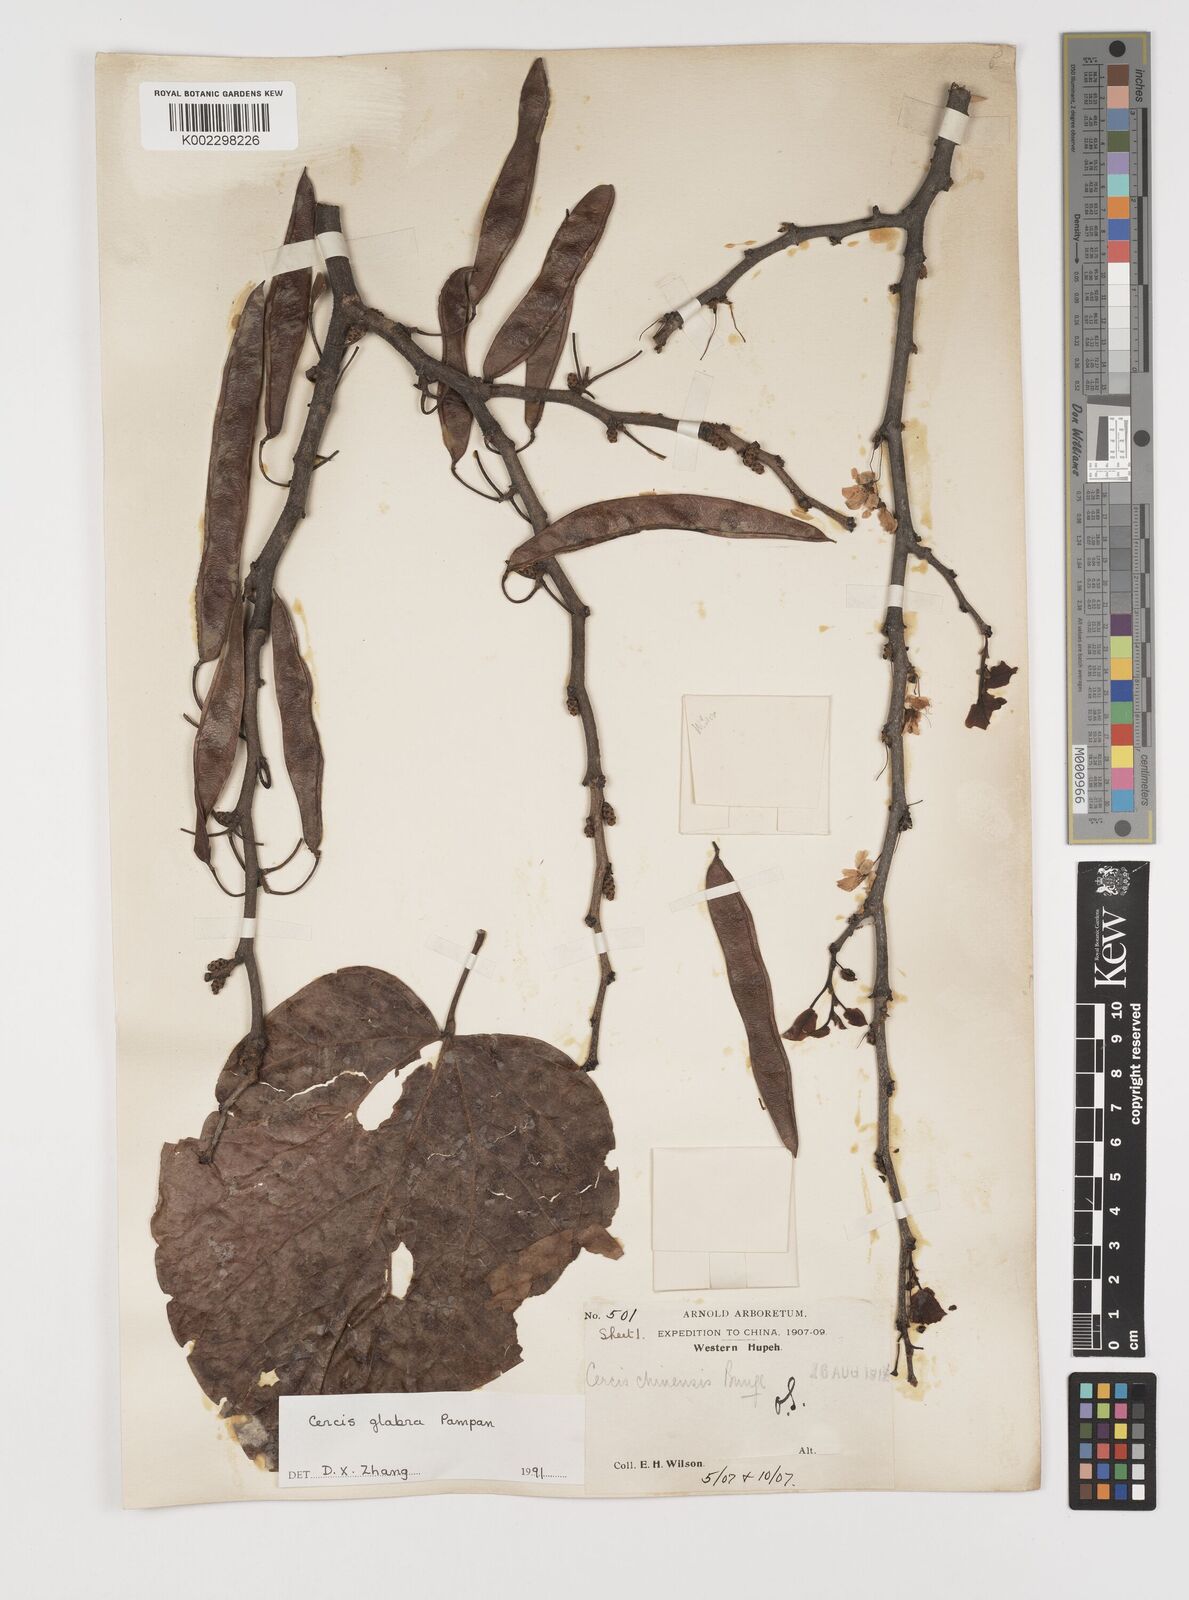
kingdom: Plantae
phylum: Tracheophyta
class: Magnoliopsida
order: Fabales
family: Fabaceae
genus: Cercis
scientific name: Cercis glabra
